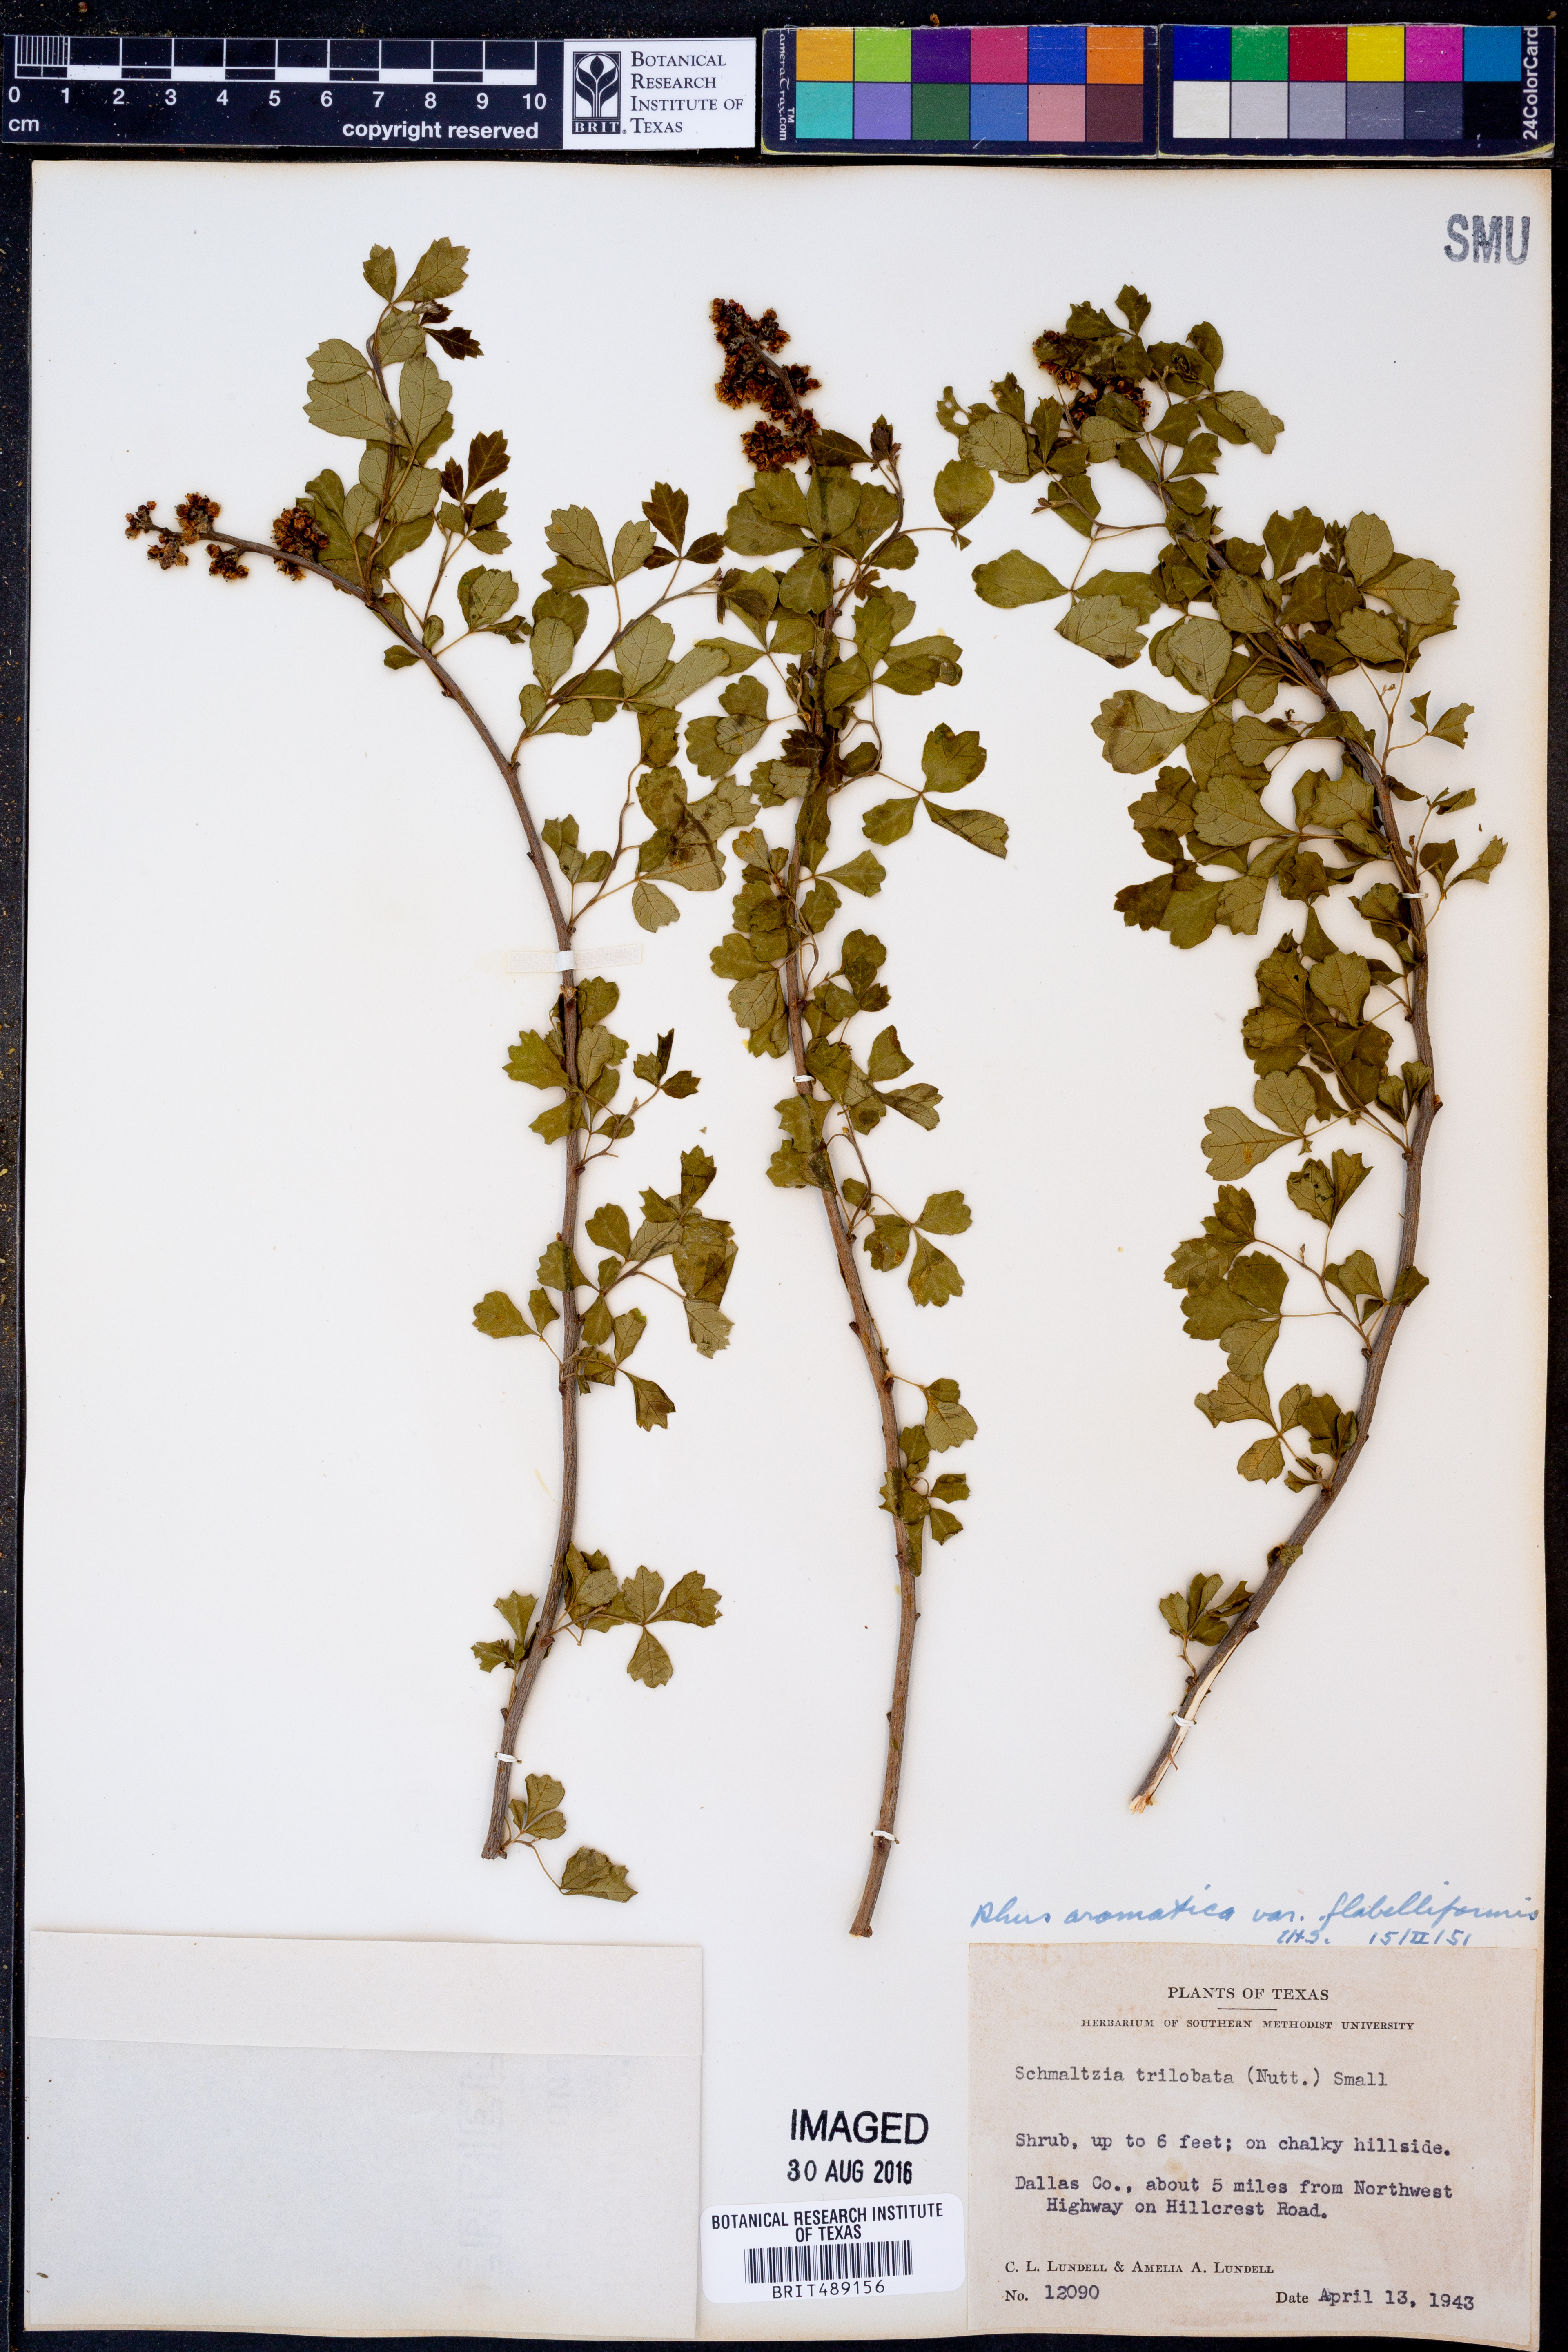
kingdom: Plantae
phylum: Tracheophyta
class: Magnoliopsida
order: Sapindales
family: Anacardiaceae
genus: Rhus
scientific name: Rhus trilobata
